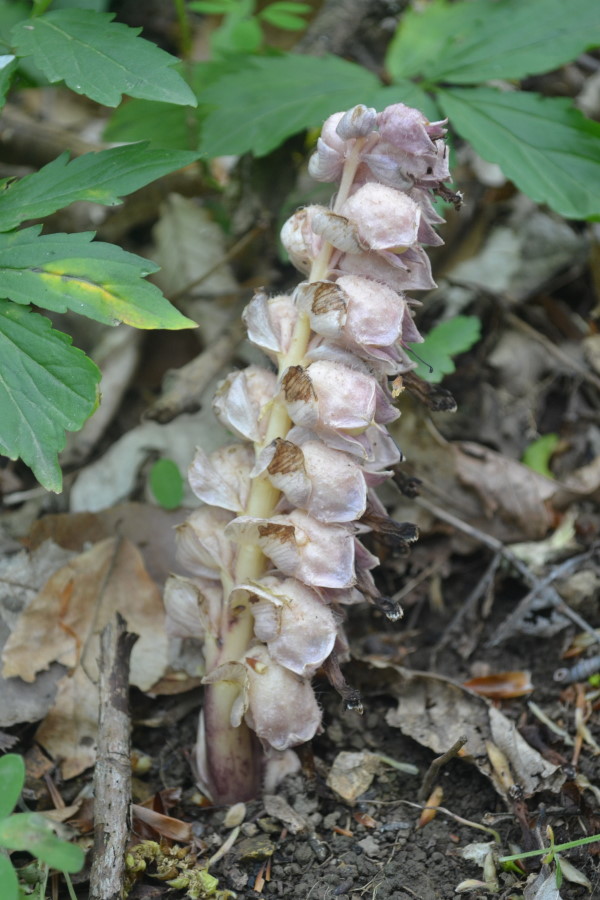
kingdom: Plantae
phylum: Tracheophyta
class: Magnoliopsida
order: Lamiales
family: Orobanchaceae
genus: Lathraea
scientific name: Lathraea squamaria
